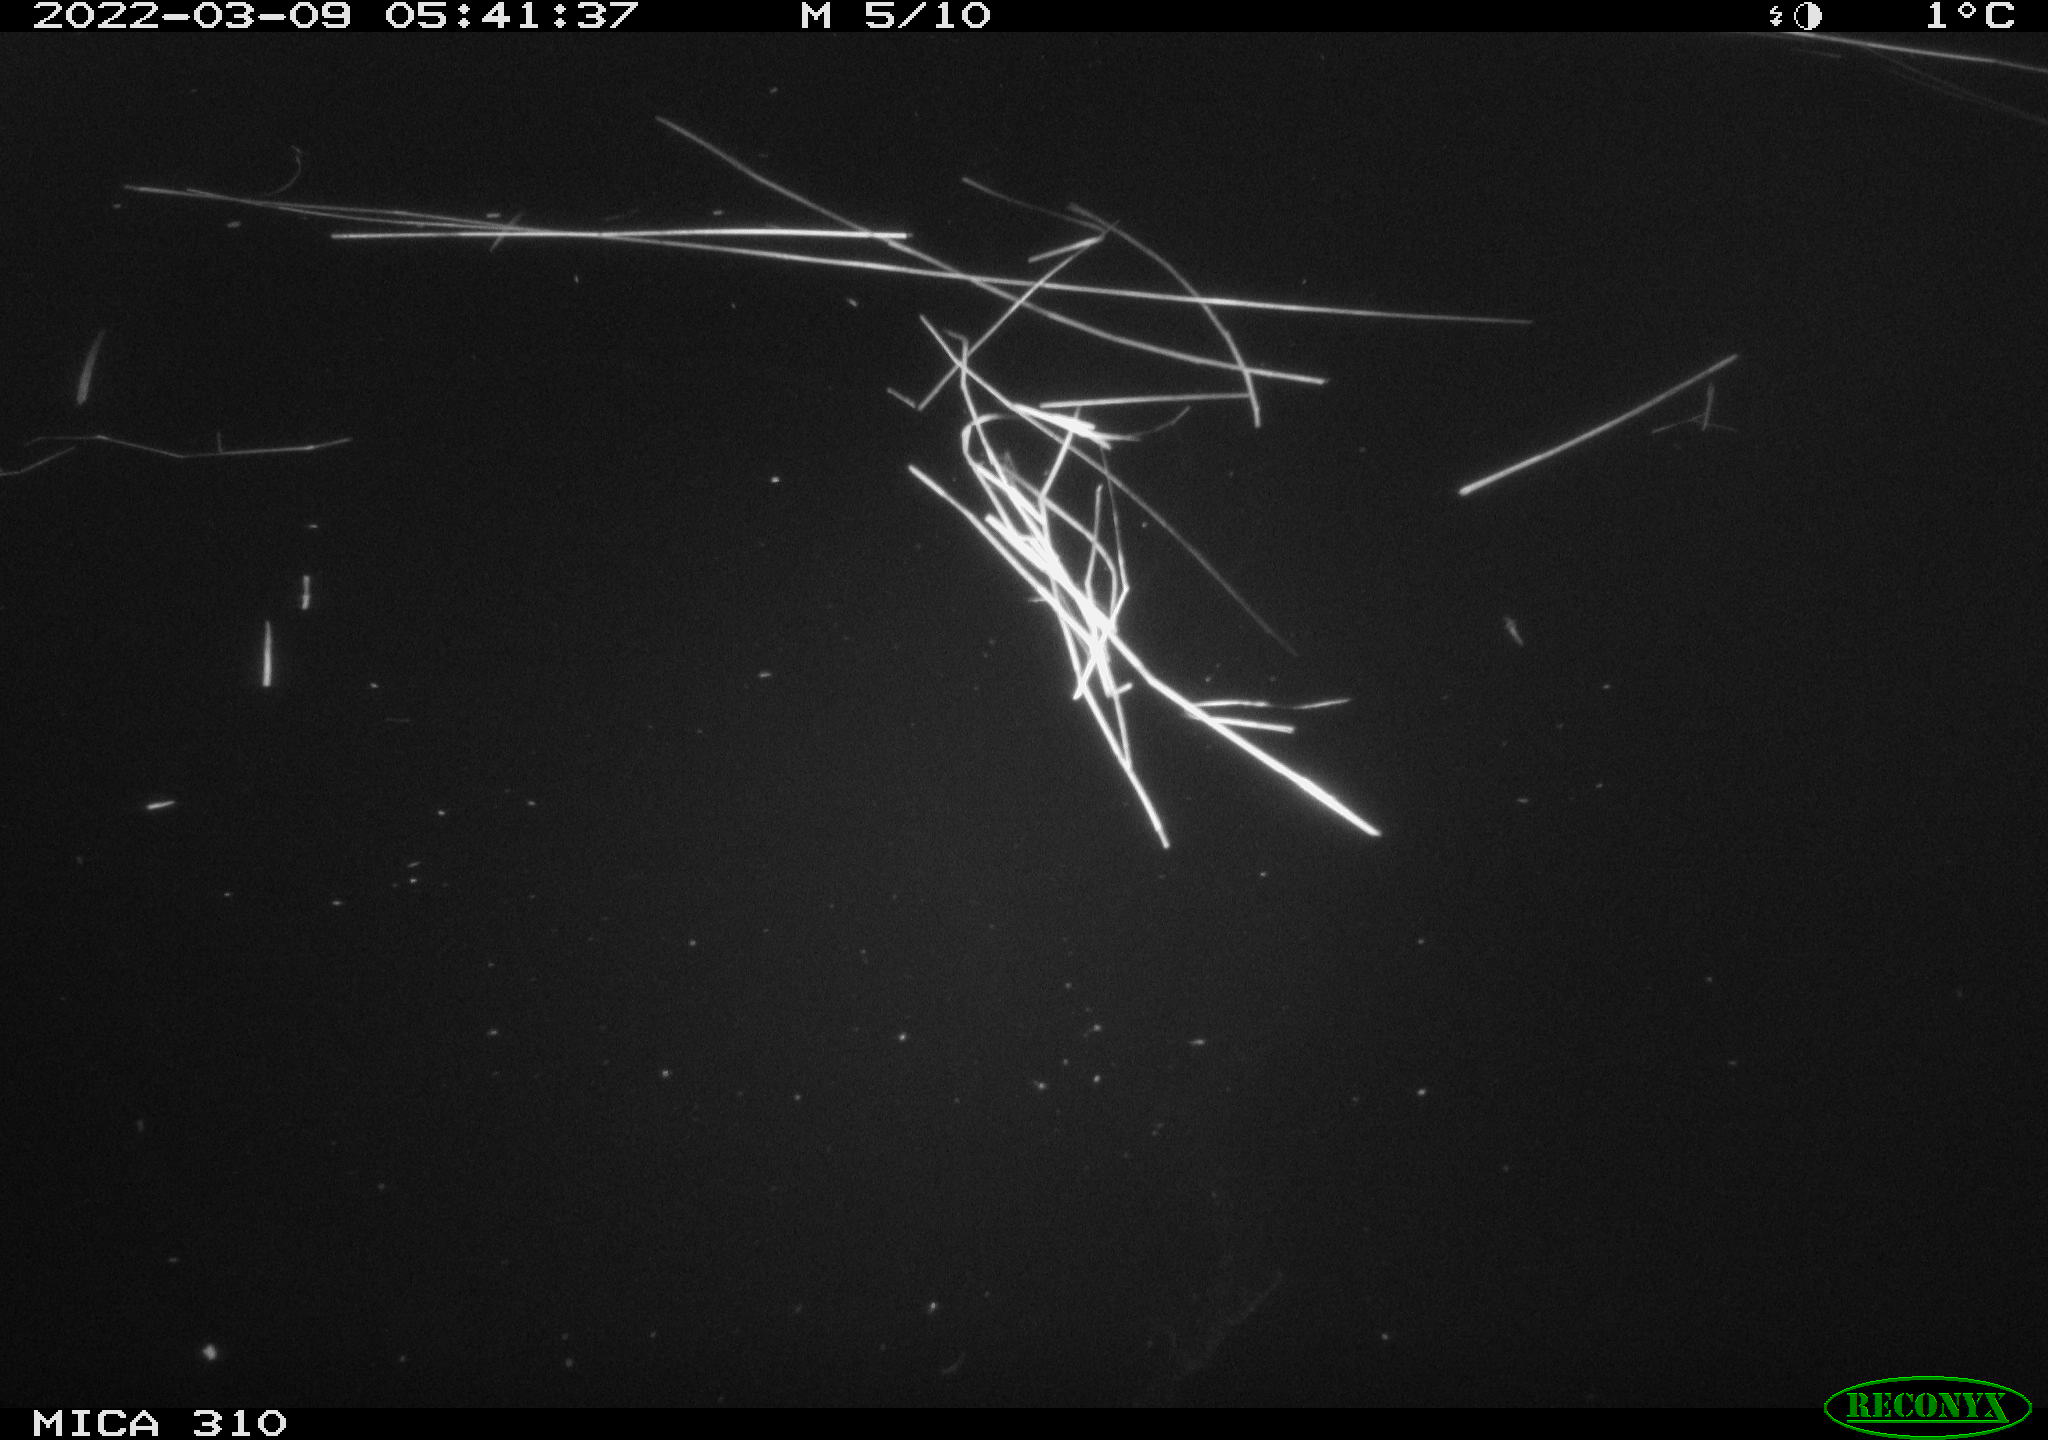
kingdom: Animalia
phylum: Chordata
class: Aves
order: Anseriformes
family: Anatidae
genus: Anas
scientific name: Anas platyrhynchos
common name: Mallard
